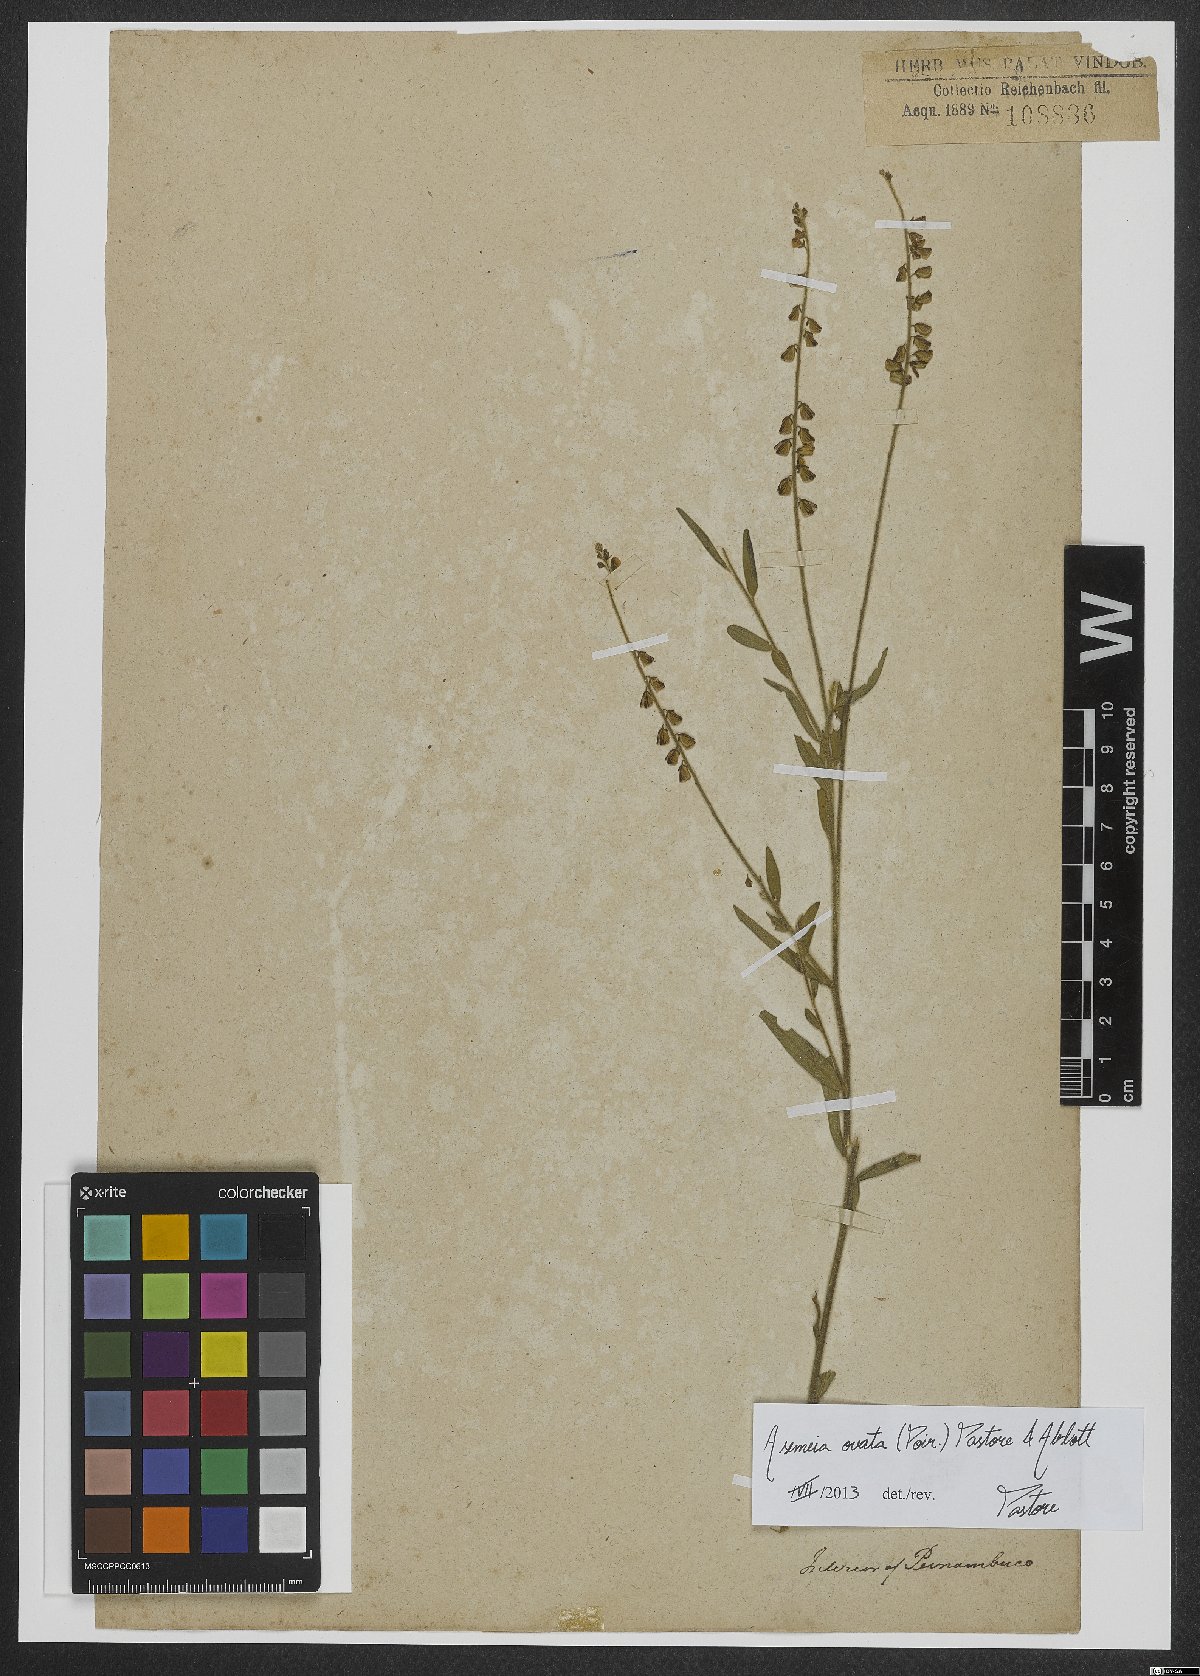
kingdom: Plantae
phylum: Tracheophyta
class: Magnoliopsida
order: Fabales
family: Polygalaceae
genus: Asemeia
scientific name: Asemeia ovata
